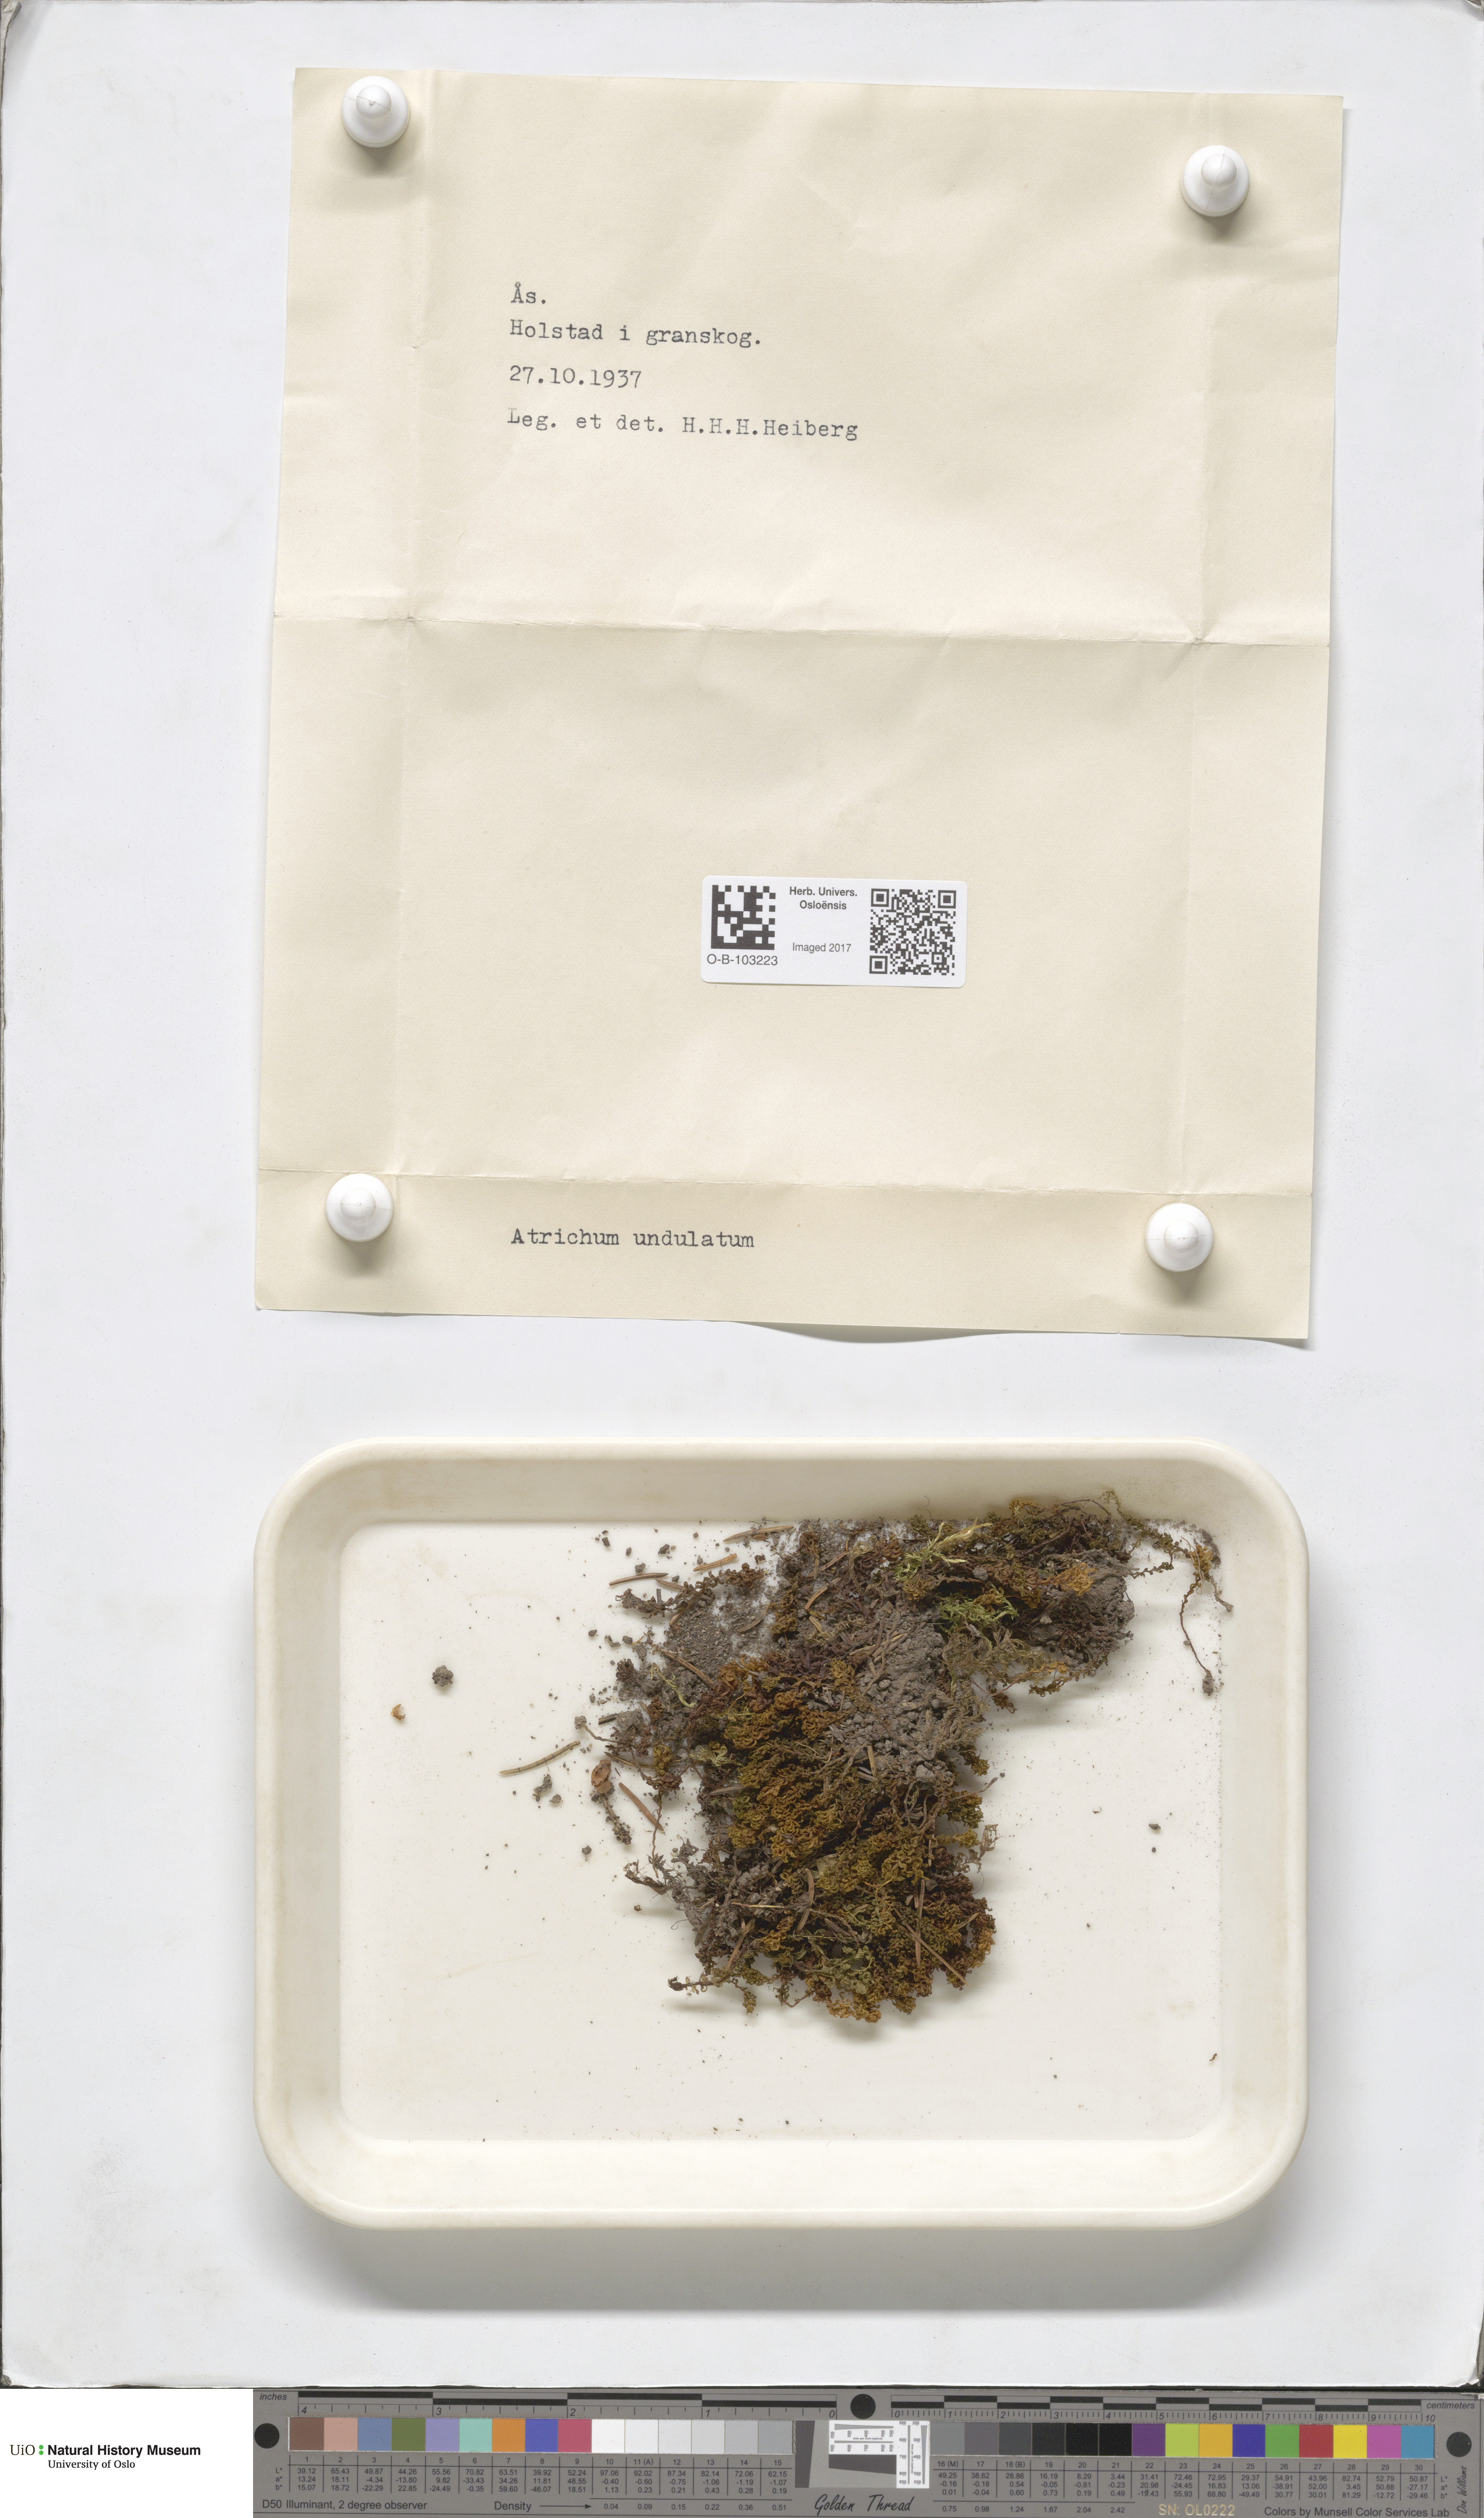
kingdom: Plantae
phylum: Bryophyta
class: Polytrichopsida
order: Polytrichales
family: Polytrichaceae
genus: Atrichum
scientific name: Atrichum undulatum
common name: Common smoothcap
